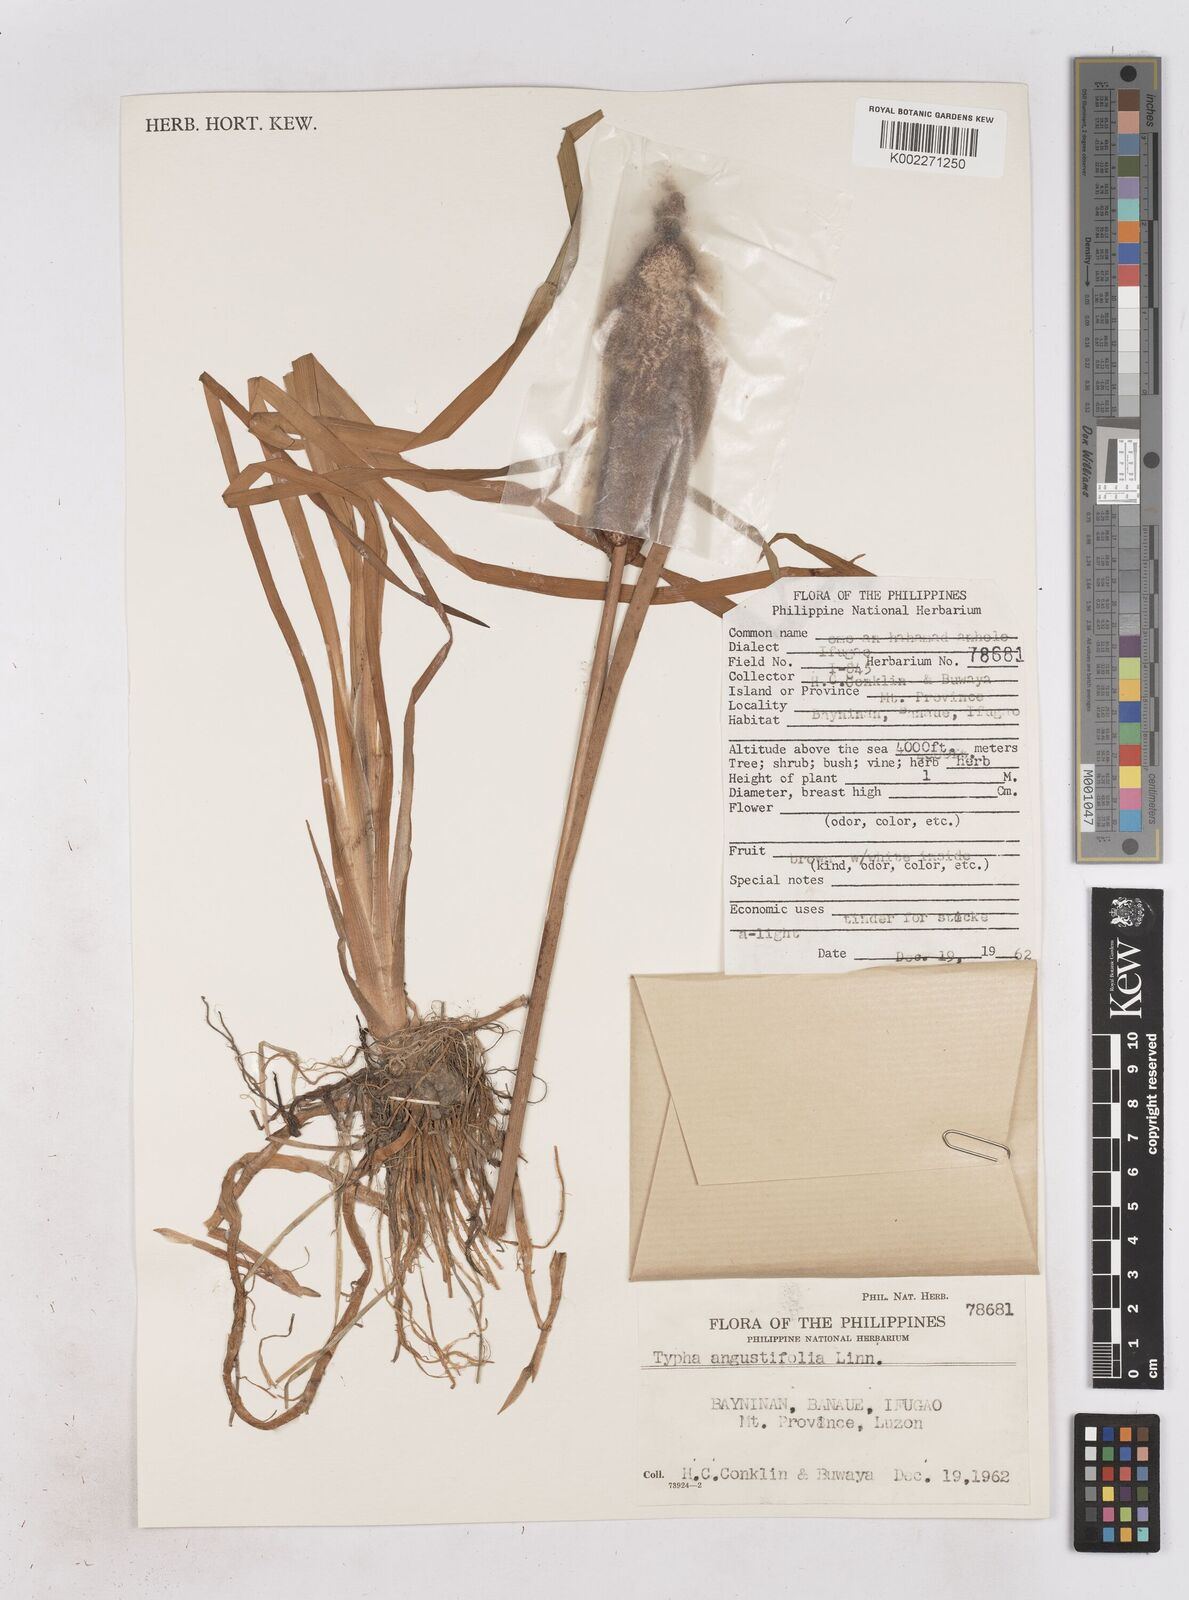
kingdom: Plantae
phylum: Tracheophyta
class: Liliopsida
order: Poales
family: Typhaceae
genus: Typha
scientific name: Typha angustifolia
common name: Lesser bulrush
